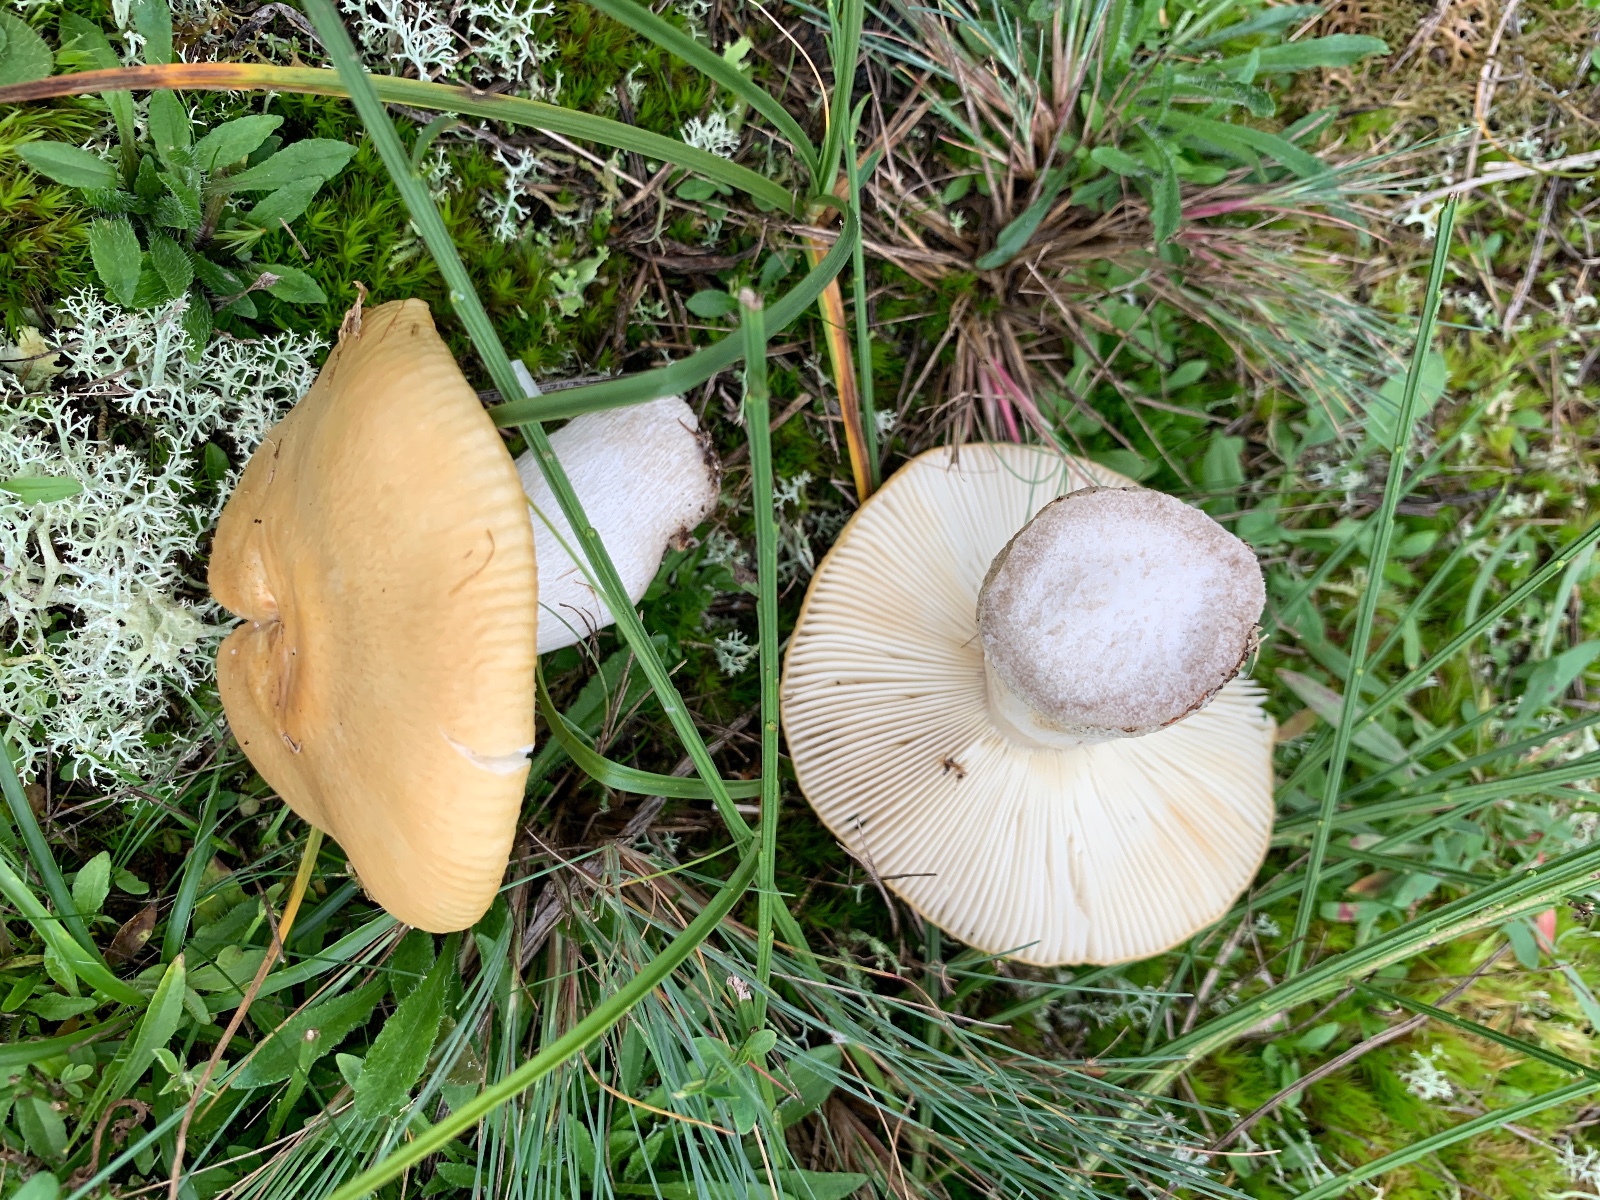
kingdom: Fungi
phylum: Basidiomycota
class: Agaricomycetes
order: Russulales
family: Russulaceae
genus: Russula
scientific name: Russula ochroleuca
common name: okkergul skørhat
